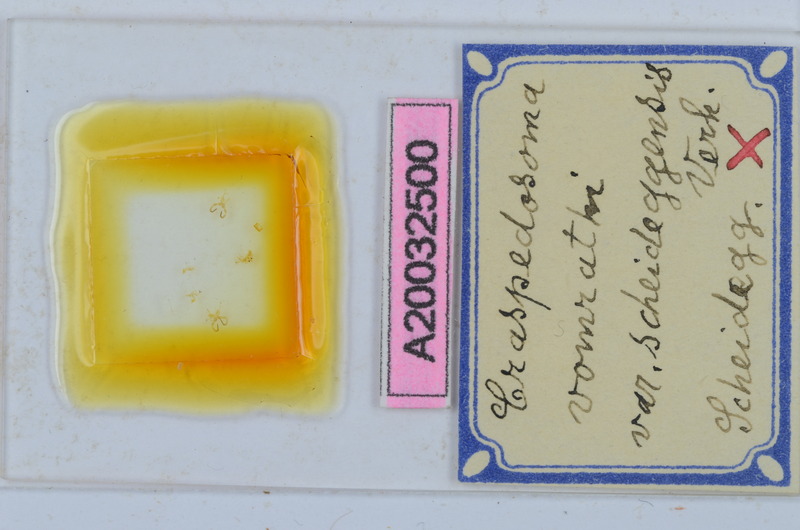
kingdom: Animalia
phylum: Arthropoda
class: Diplopoda
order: Chordeumatida
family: Craspedosomatidae
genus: Craspedosoma
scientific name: Craspedosoma vomrathi
